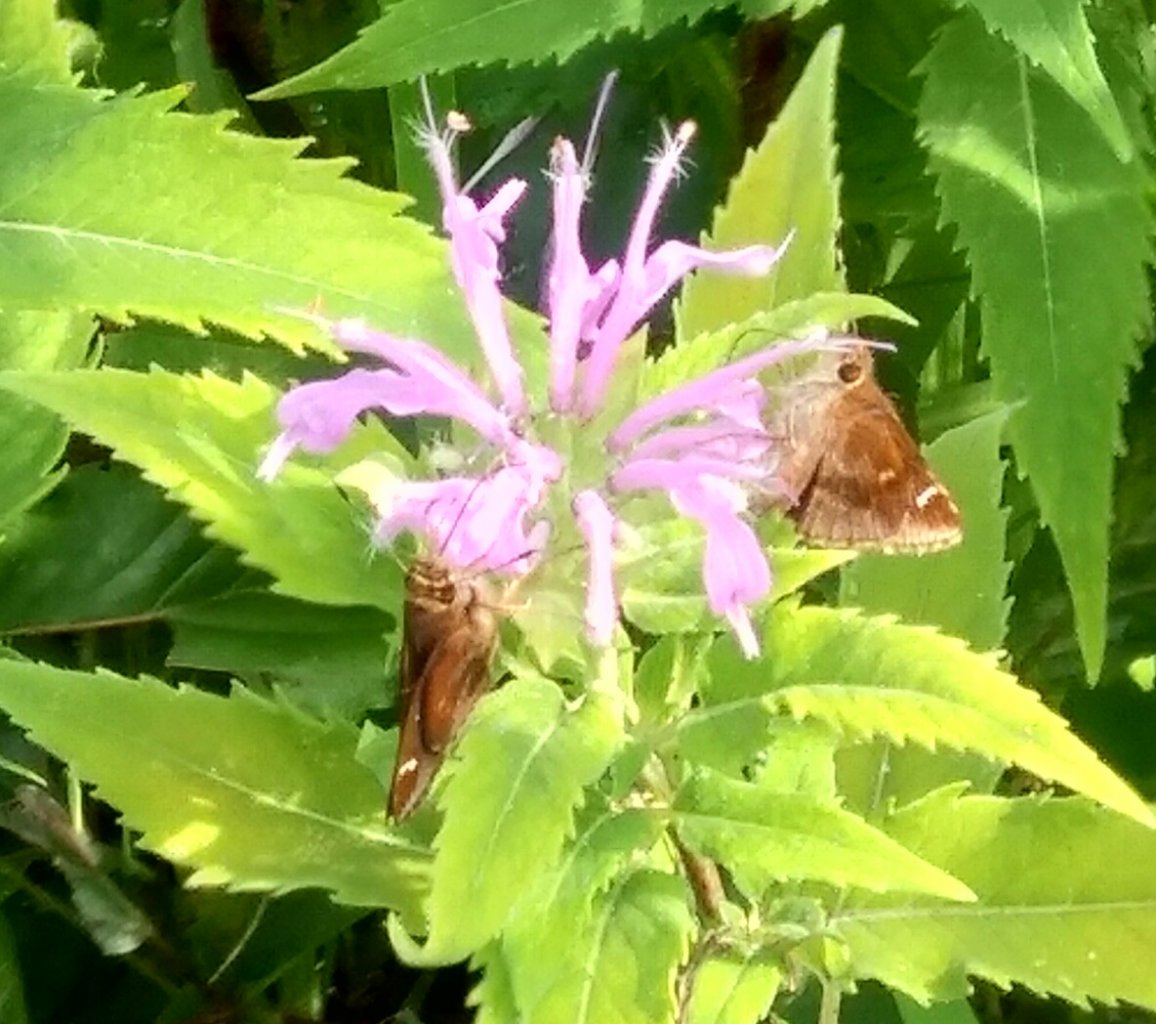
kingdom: Animalia
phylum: Arthropoda
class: Insecta
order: Lepidoptera
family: Hesperiidae
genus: Lerema
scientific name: Lerema accius
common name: Clouded Skipper
